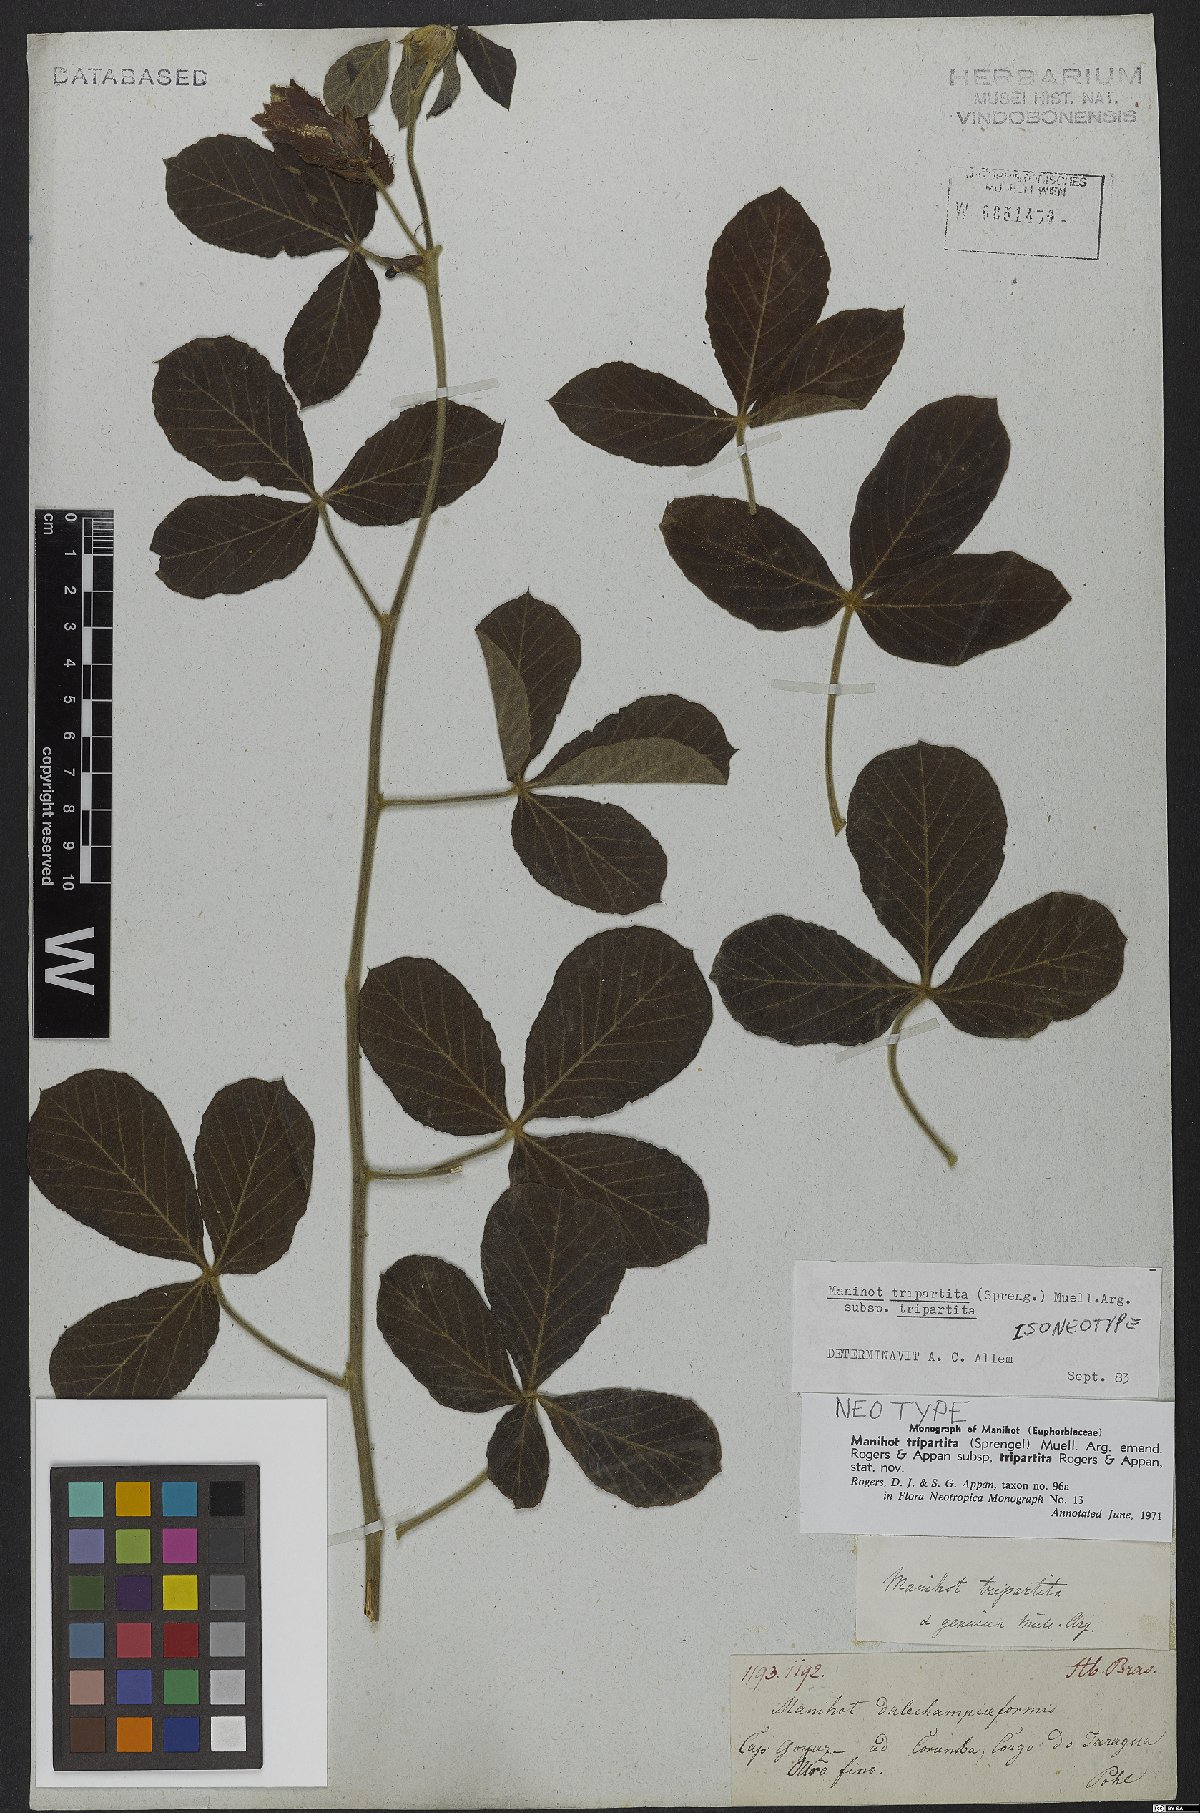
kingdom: Plantae
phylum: Tracheophyta
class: Magnoliopsida
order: Malpighiales
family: Euphorbiaceae
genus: Manihot
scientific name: Manihot tripartita
